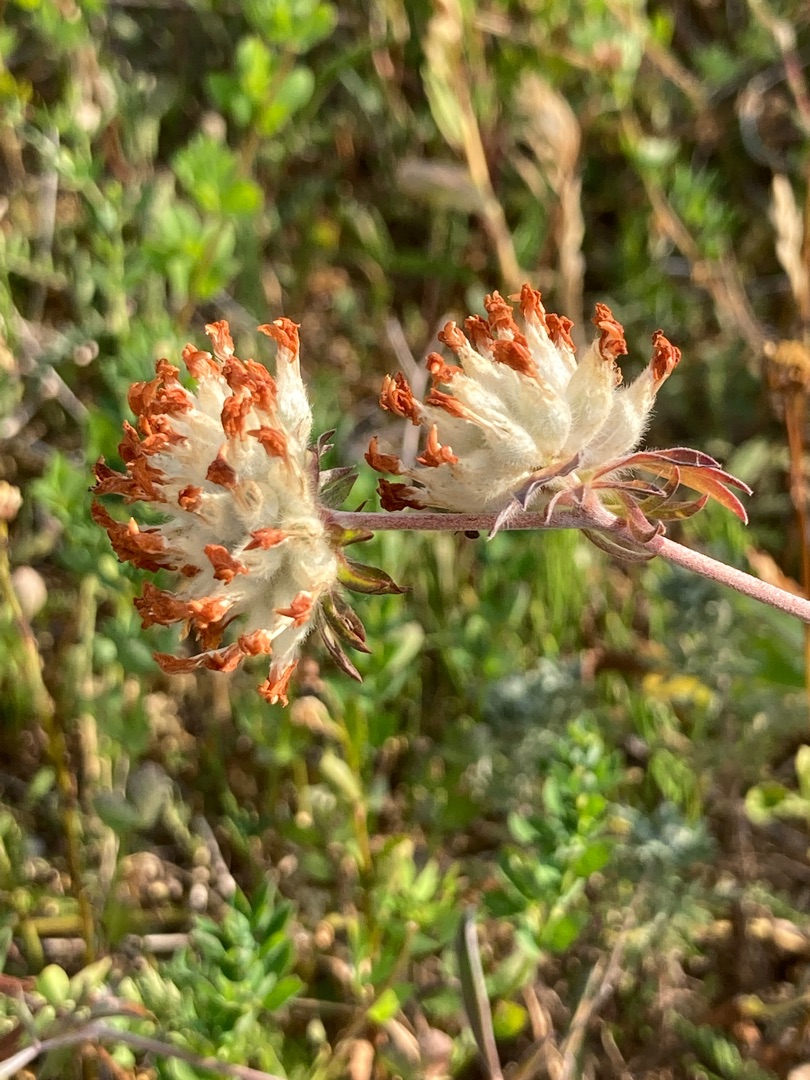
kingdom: Plantae
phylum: Tracheophyta
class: Magnoliopsida
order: Fabales
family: Fabaceae
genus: Anthyllis
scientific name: Anthyllis vulneraria
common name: Rundbælg
